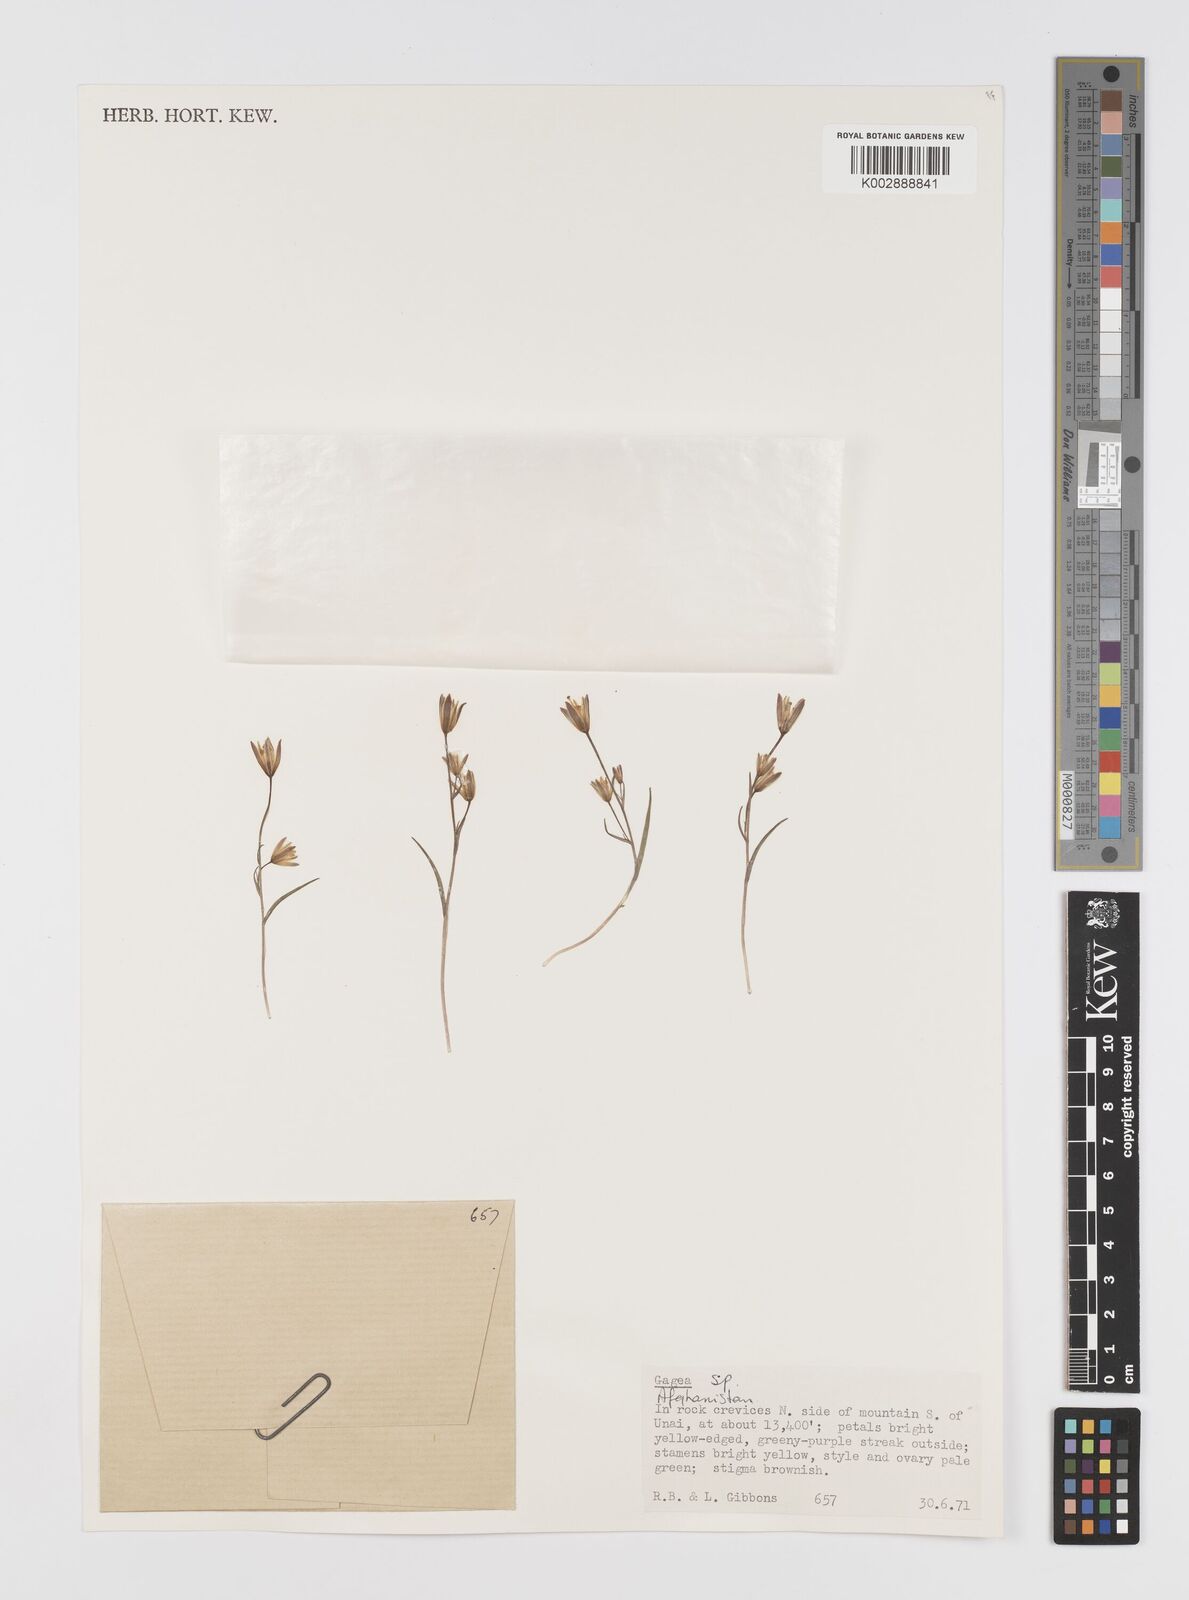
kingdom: Plantae
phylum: Tracheophyta
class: Liliopsida
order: Liliales
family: Liliaceae
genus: Gagea
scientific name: Gagea
